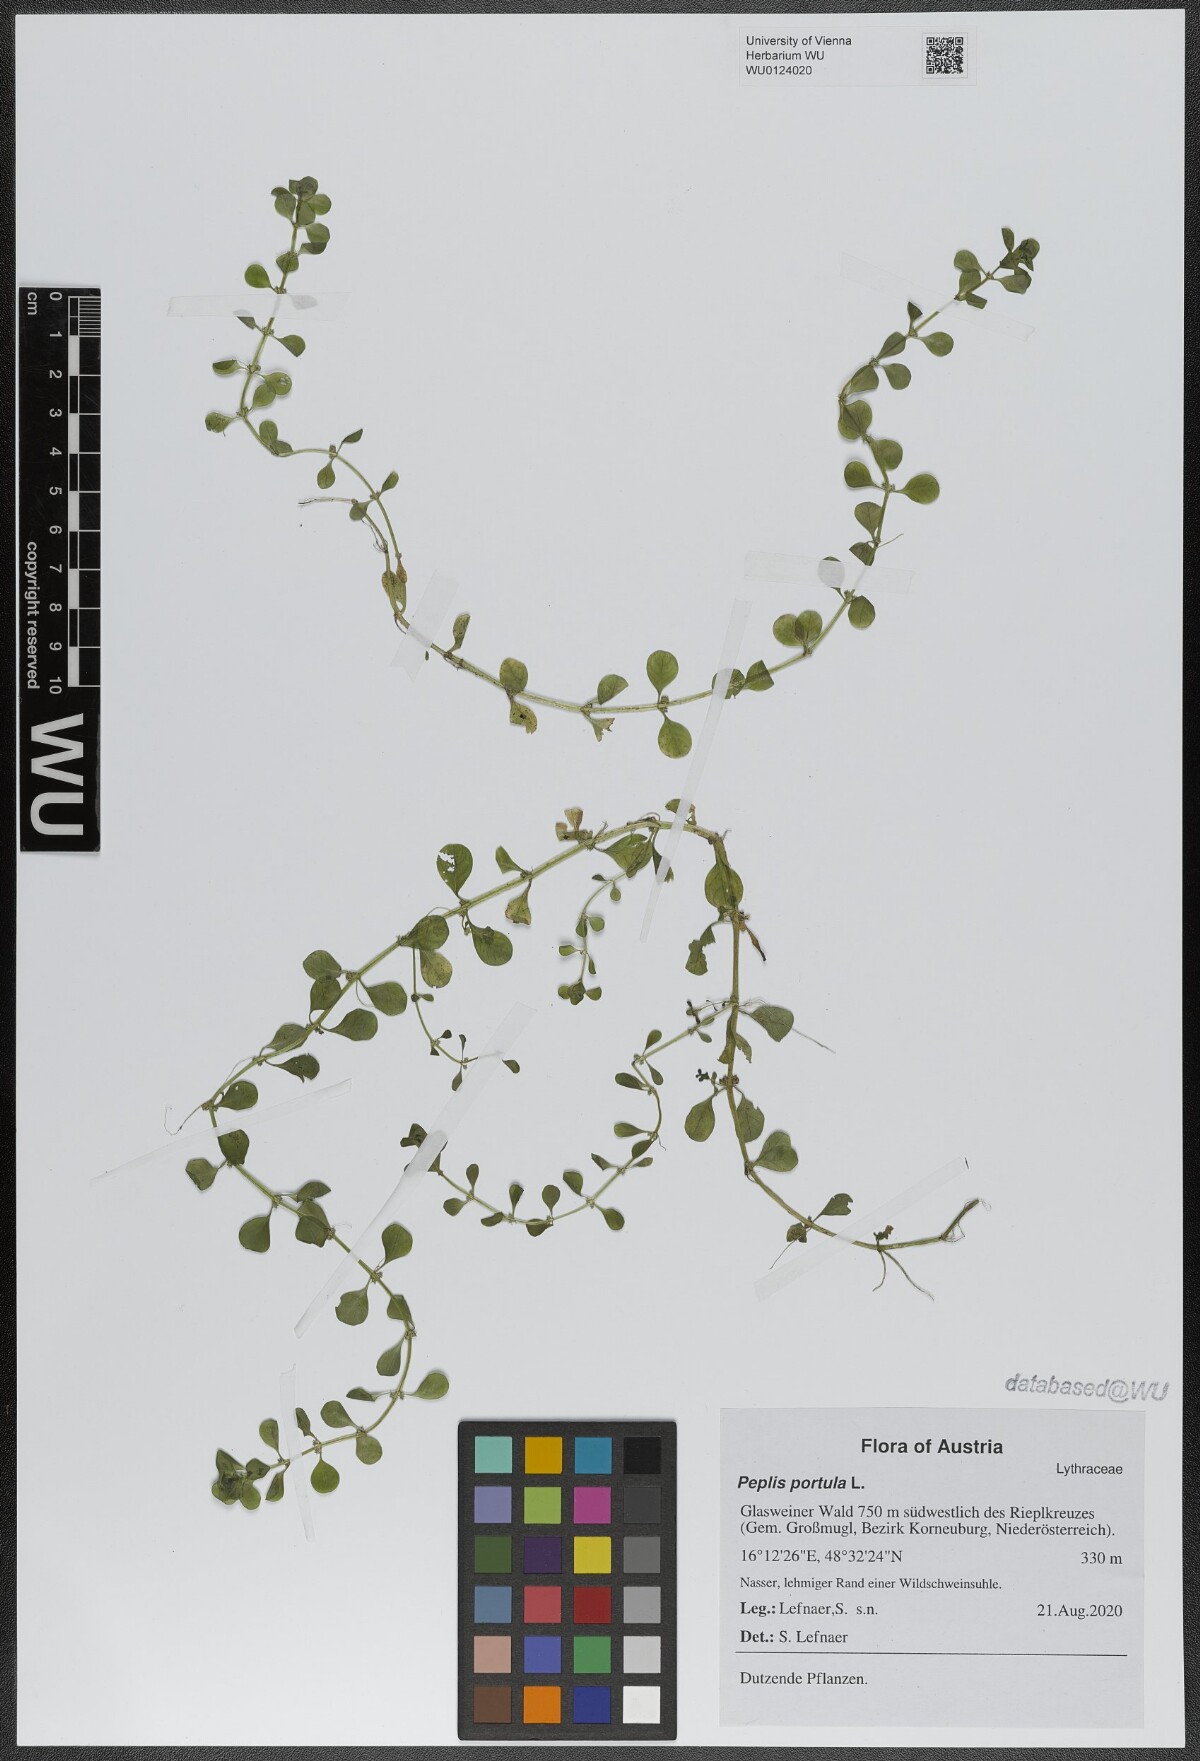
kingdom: Plantae
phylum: Tracheophyta
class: Magnoliopsida
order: Myrtales
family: Lythraceae
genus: Lythrum
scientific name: Lythrum portula
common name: Water purslane
